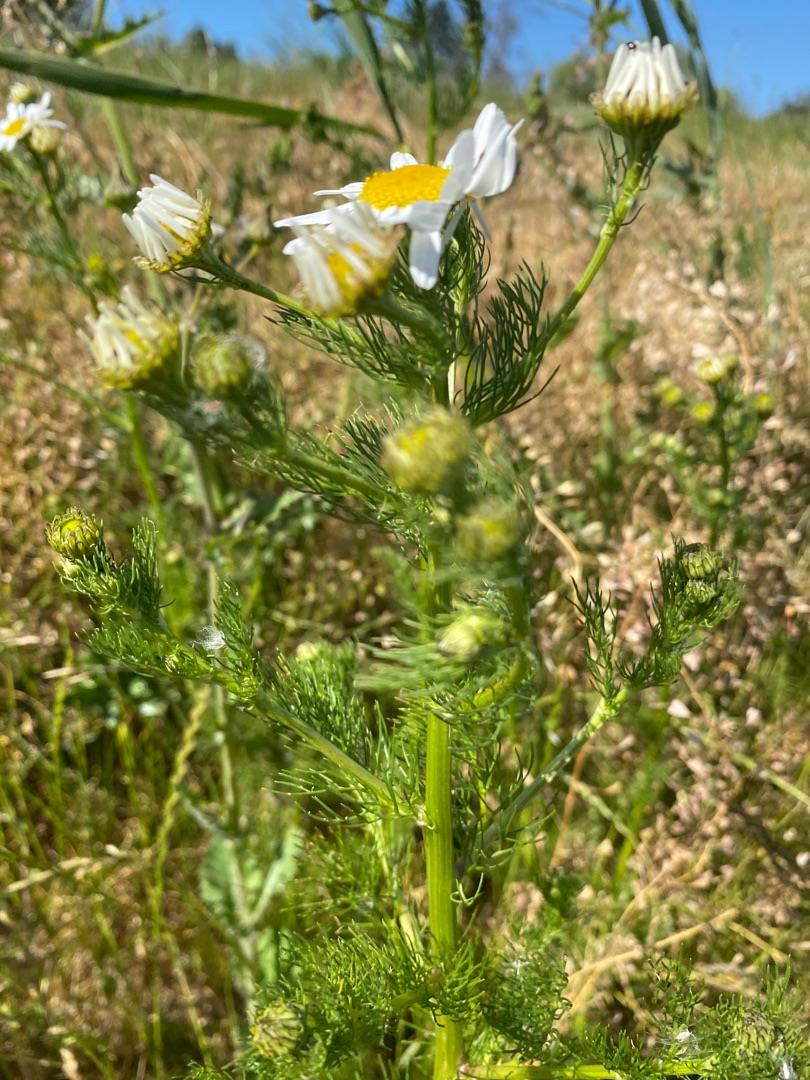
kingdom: Plantae
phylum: Tracheophyta
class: Magnoliopsida
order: Asterales
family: Asteraceae
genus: Tripleurospermum
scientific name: Tripleurospermum inodorum
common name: Lugtløs kamille
